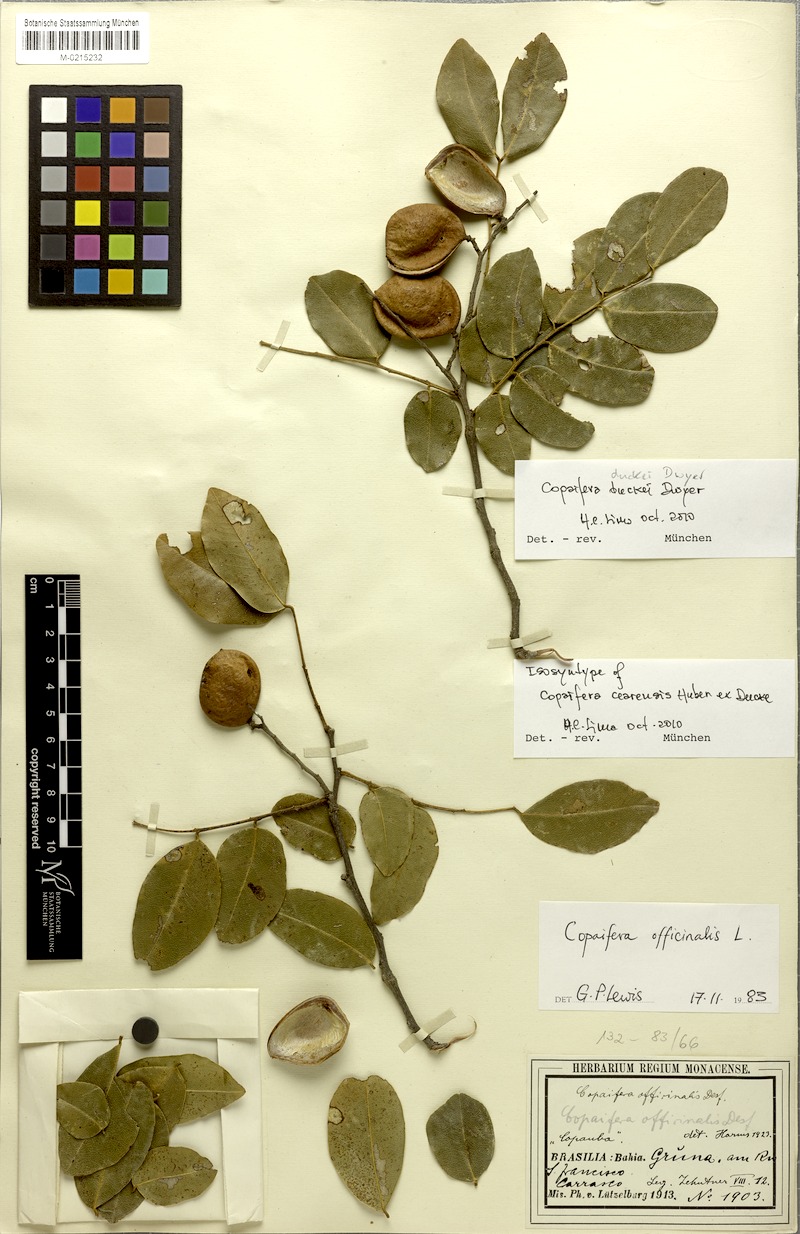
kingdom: Plantae
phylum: Tracheophyta
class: Magnoliopsida
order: Fabales
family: Fabaceae
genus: Copaifera
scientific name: Copaifera duckei
